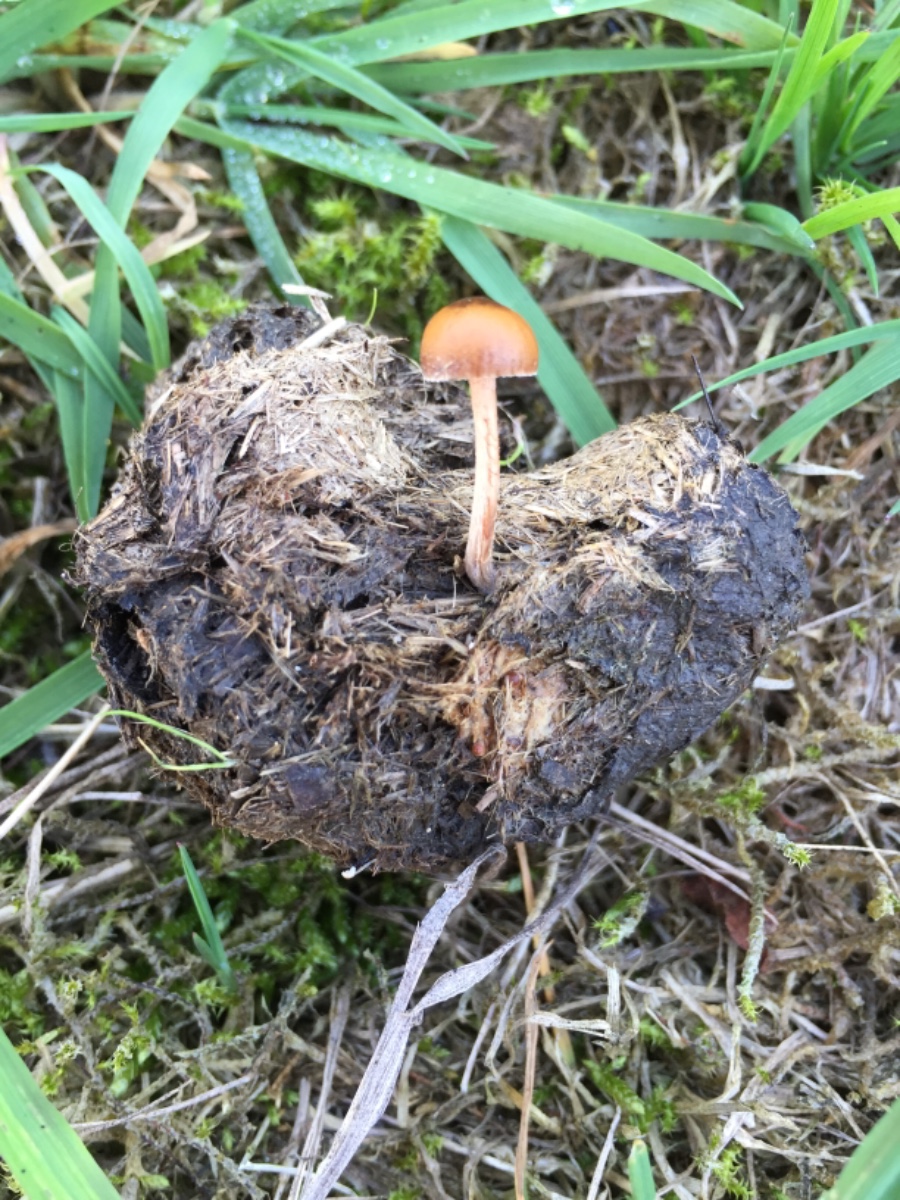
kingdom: Fungi
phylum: Basidiomycota
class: Agaricomycetes
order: Agaricales
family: Strophariaceae
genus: Deconica
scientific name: Deconica coprophila
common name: gødnings-stråhat
